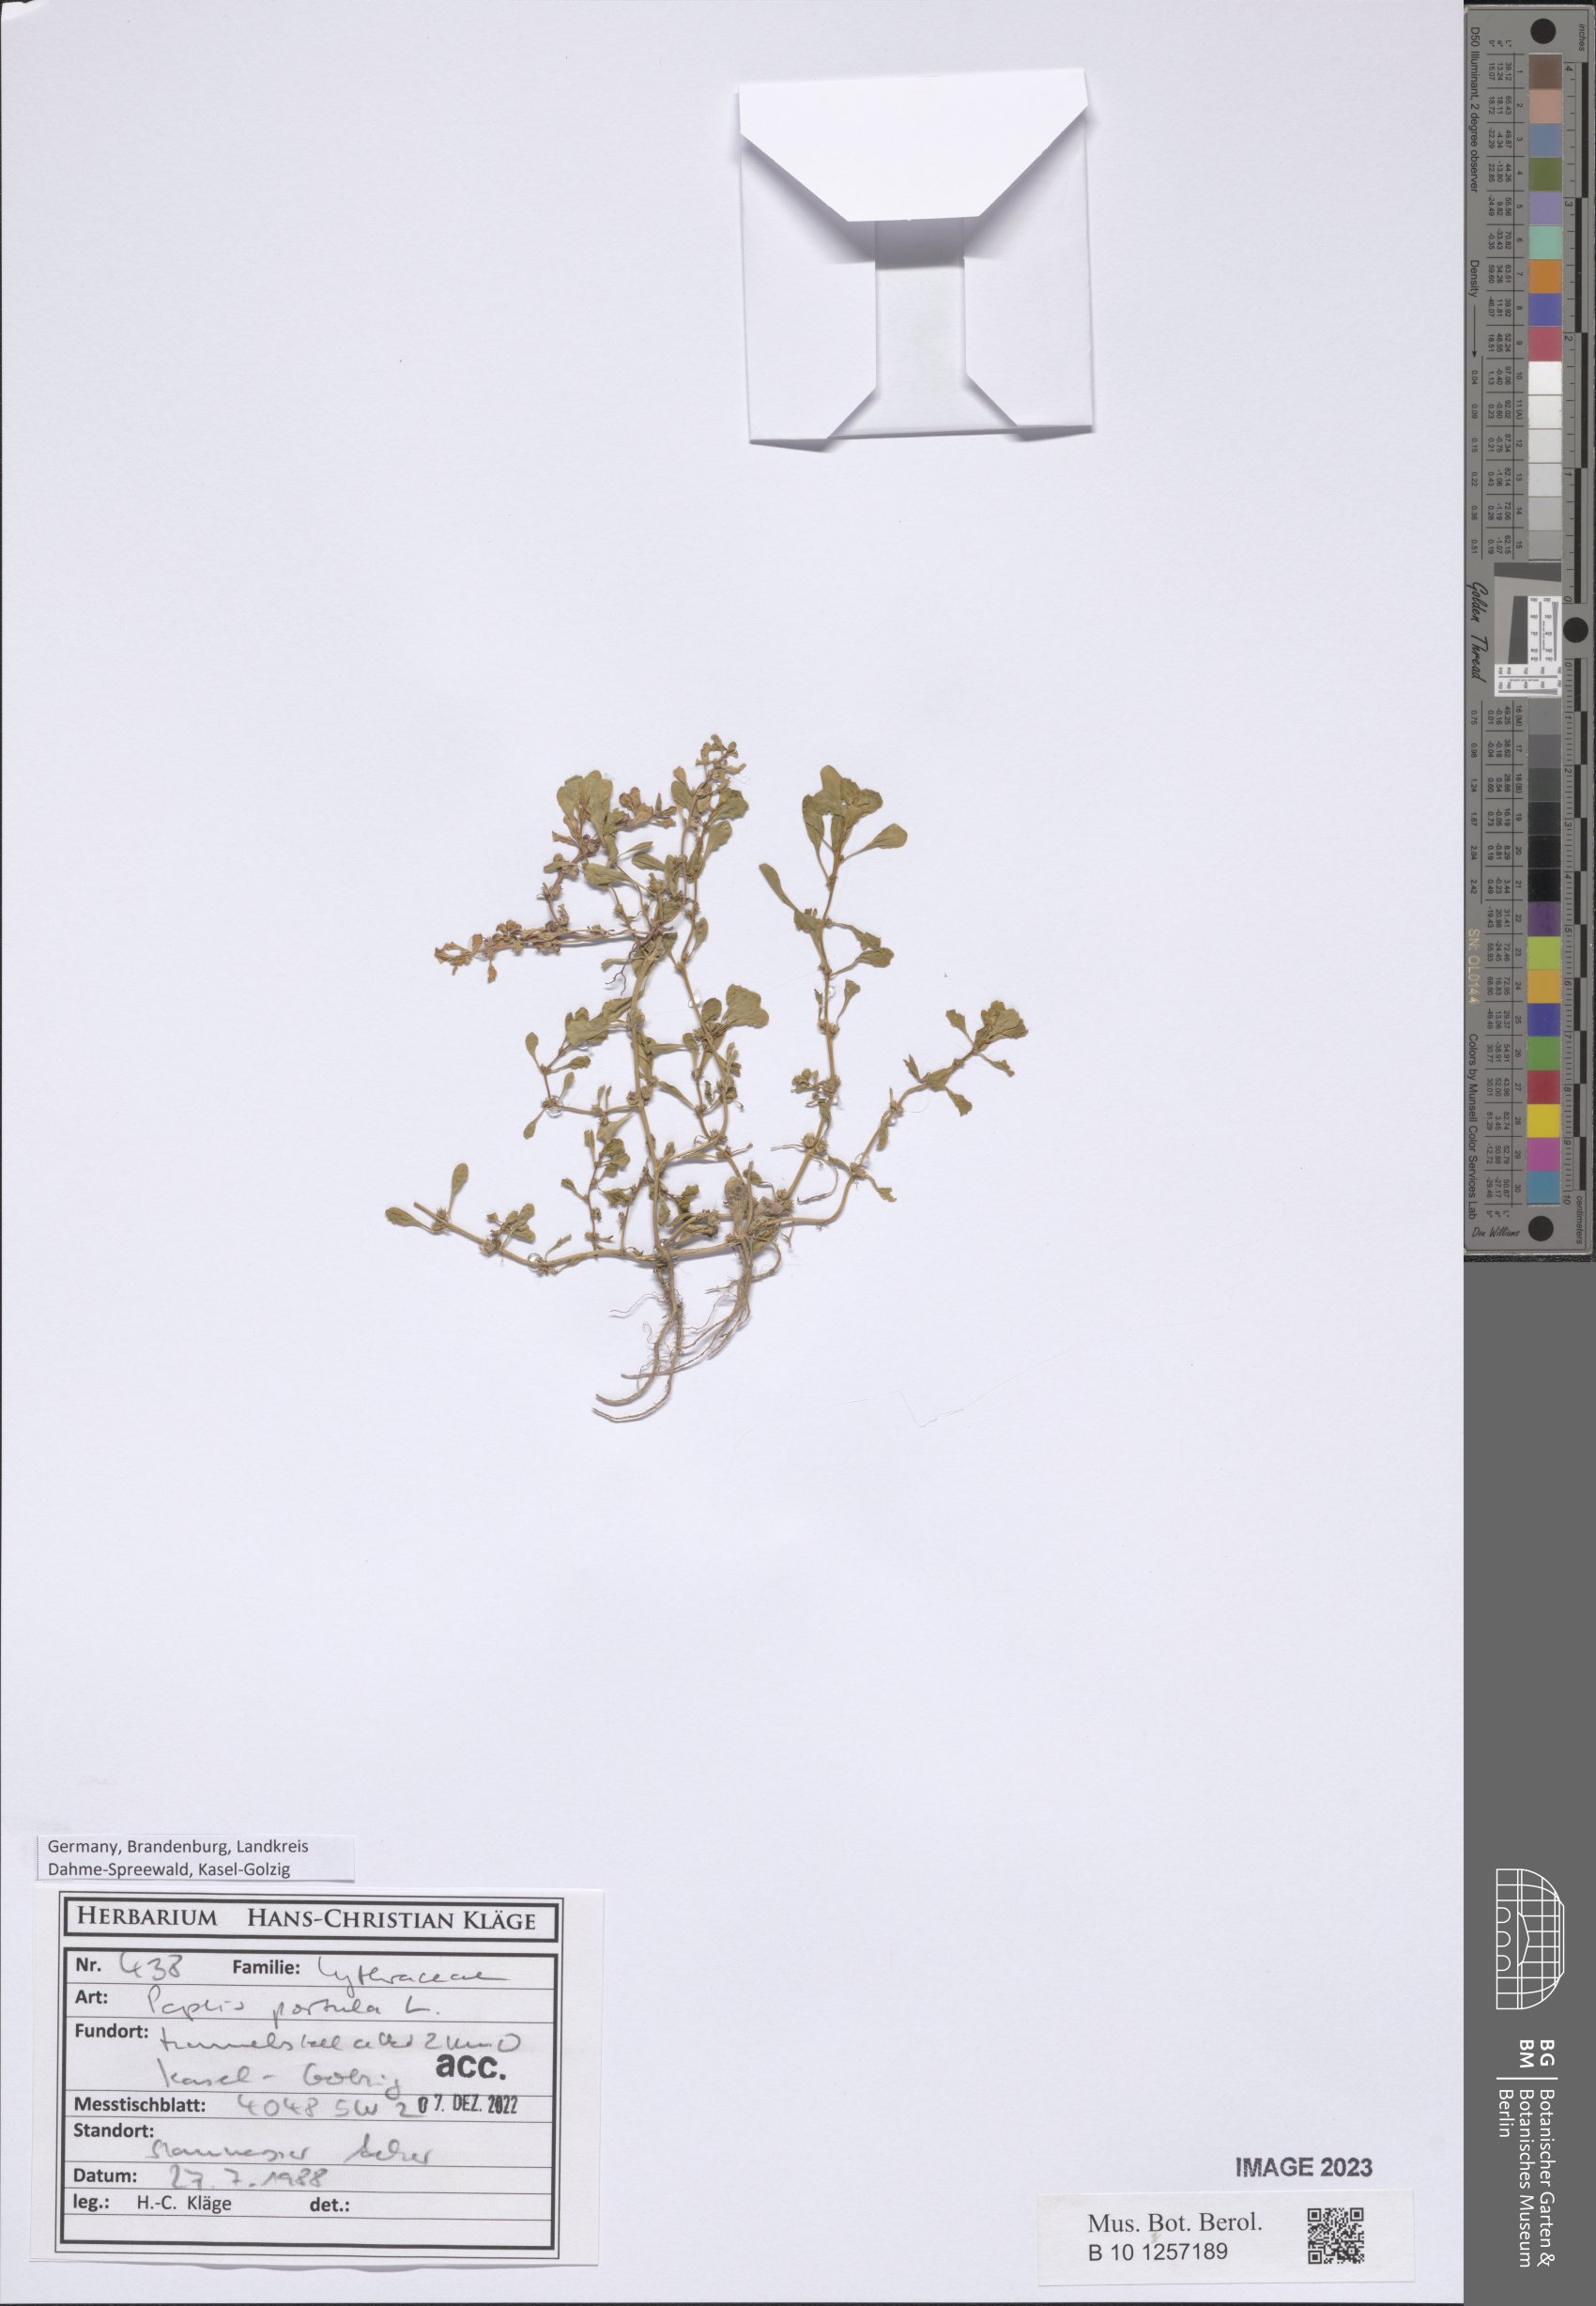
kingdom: Plantae
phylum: Tracheophyta
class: Magnoliopsida
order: Myrtales
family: Lythraceae
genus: Lythrum
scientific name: Lythrum portula
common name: Water purslane
